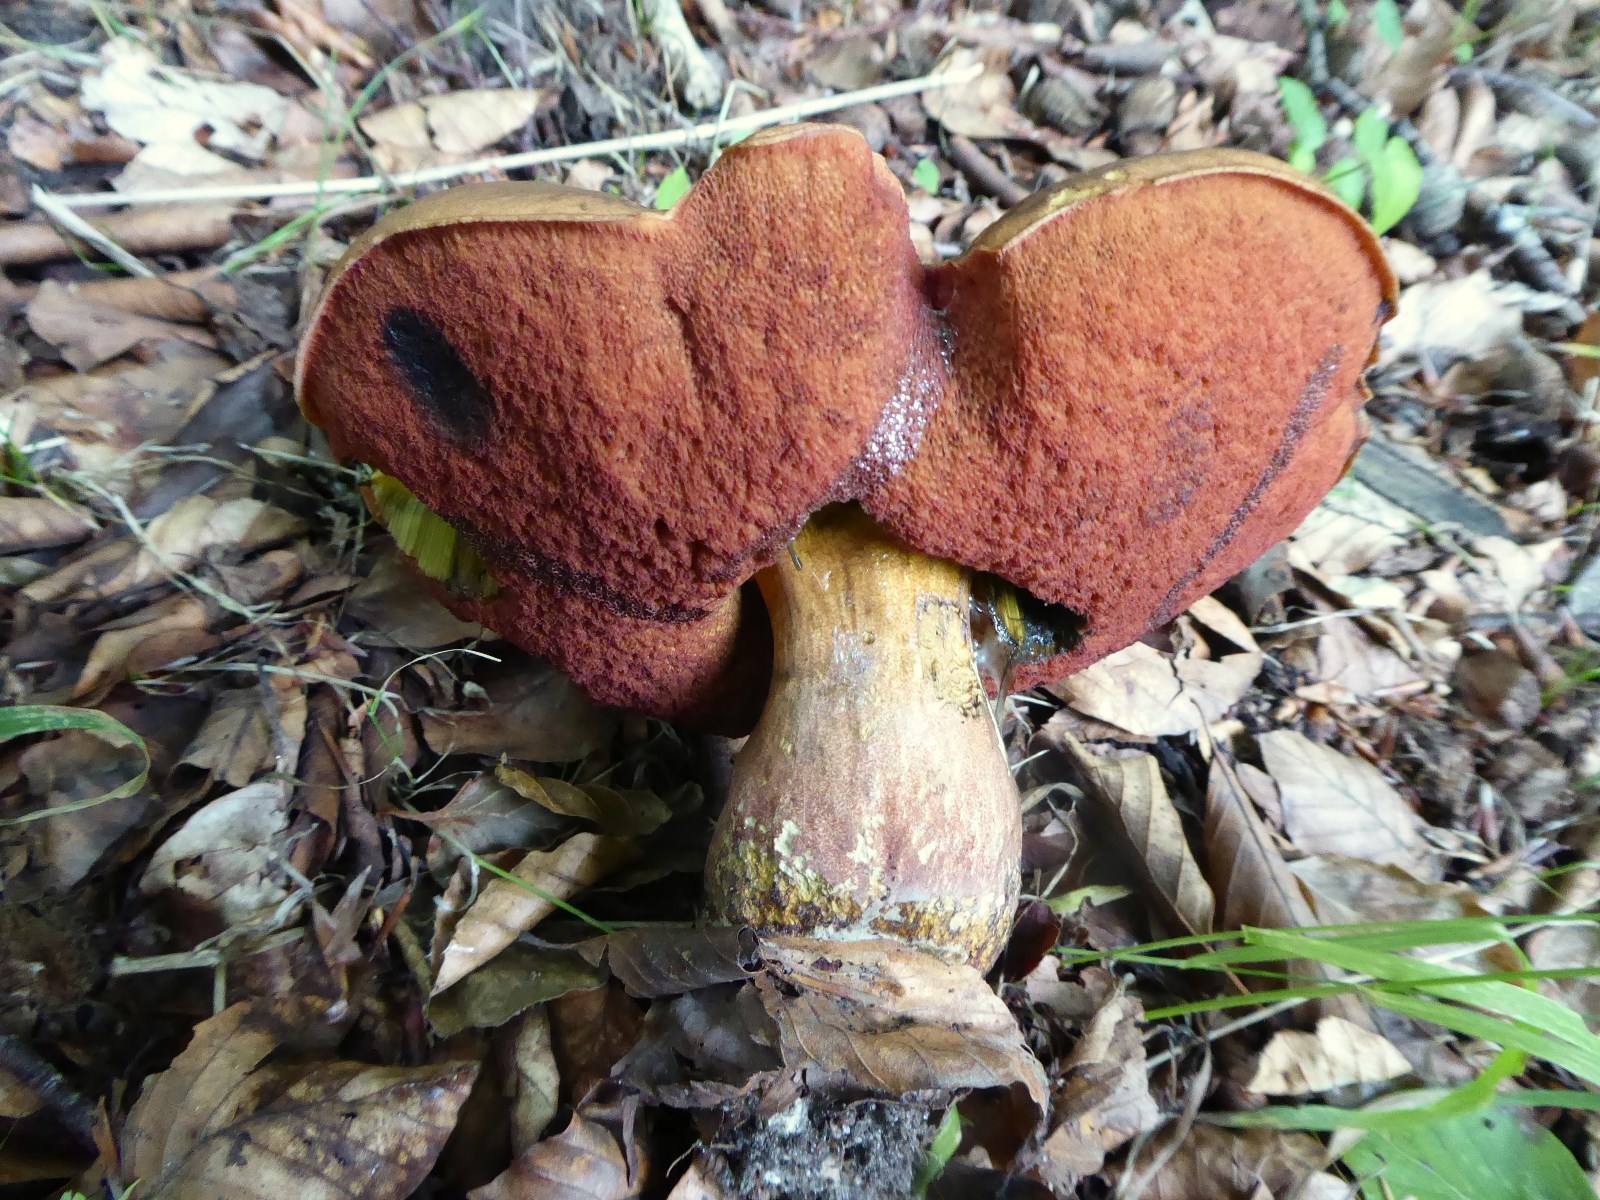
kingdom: Fungi
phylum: Basidiomycota
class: Agaricomycetes
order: Boletales
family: Boletaceae
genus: Neoboletus
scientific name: Neoboletus erythropus
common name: punktstokket indigorørhat
